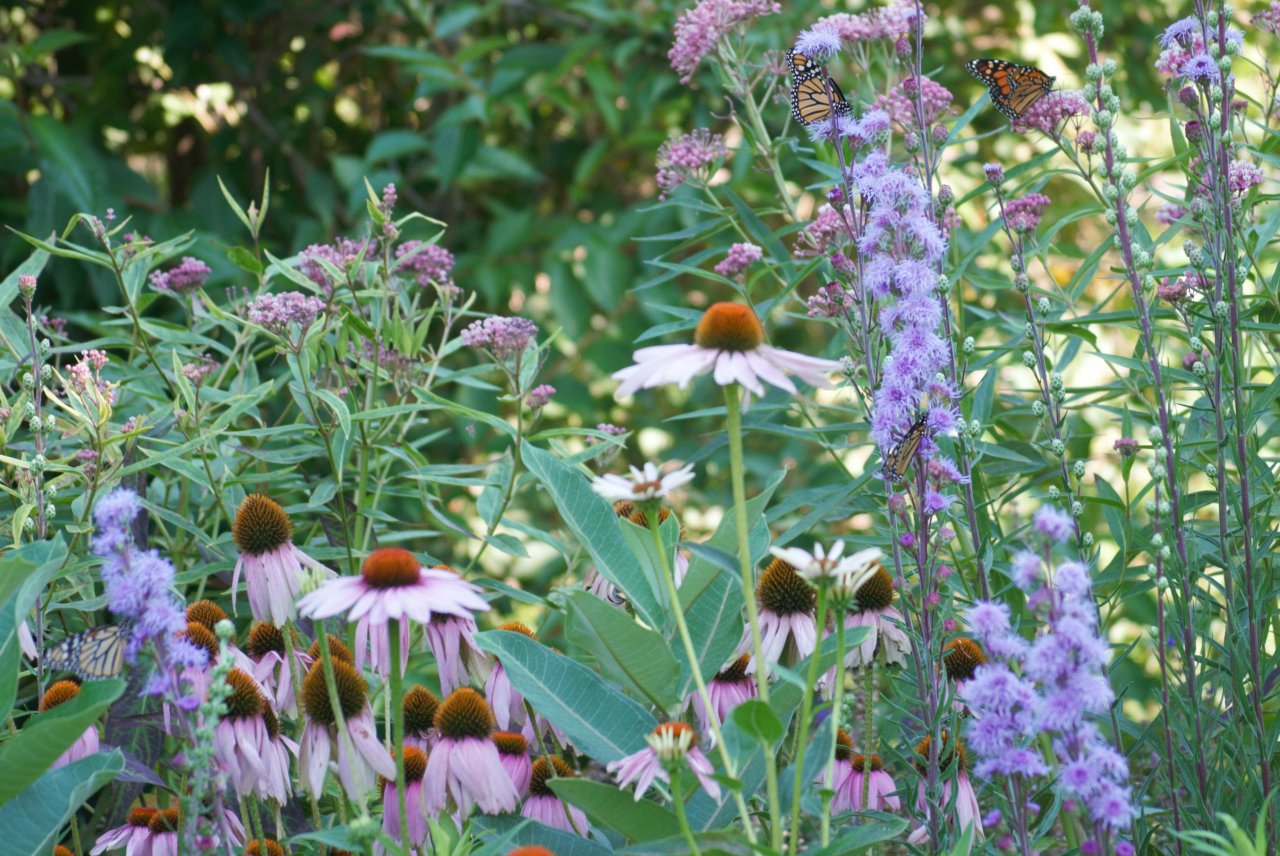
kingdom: Animalia
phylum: Arthropoda
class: Insecta
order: Lepidoptera
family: Nymphalidae
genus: Danaus
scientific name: Danaus plexippus
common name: Monarch
